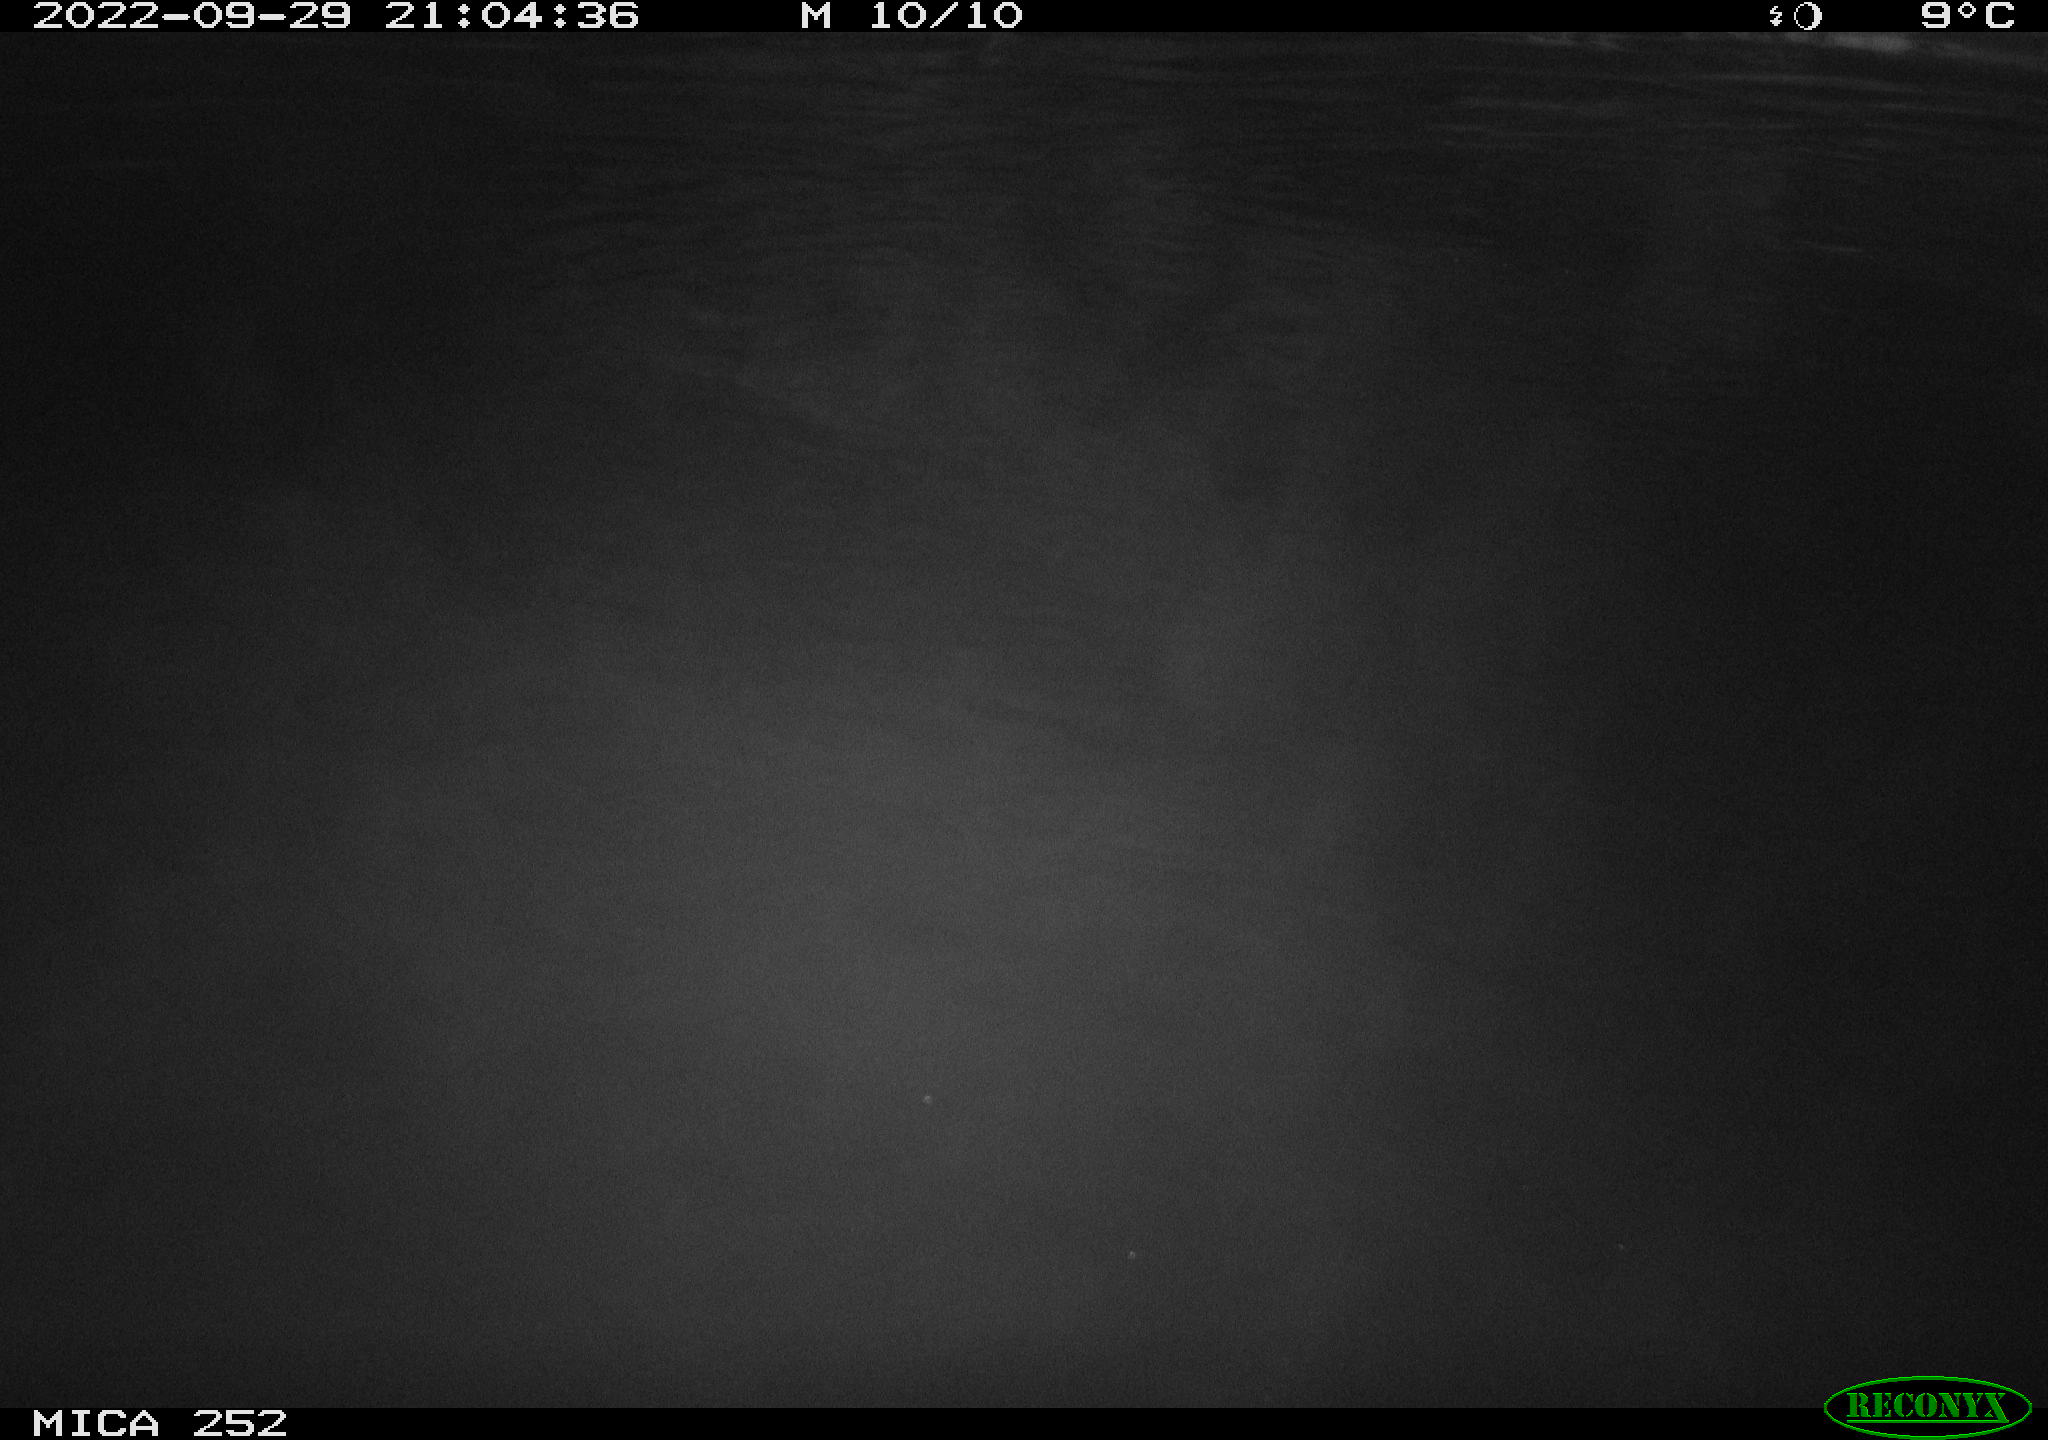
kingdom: Animalia
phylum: Chordata
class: Mammalia
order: Rodentia
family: Castoridae
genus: Castor
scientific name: Castor fiber
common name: Eurasian beaver
